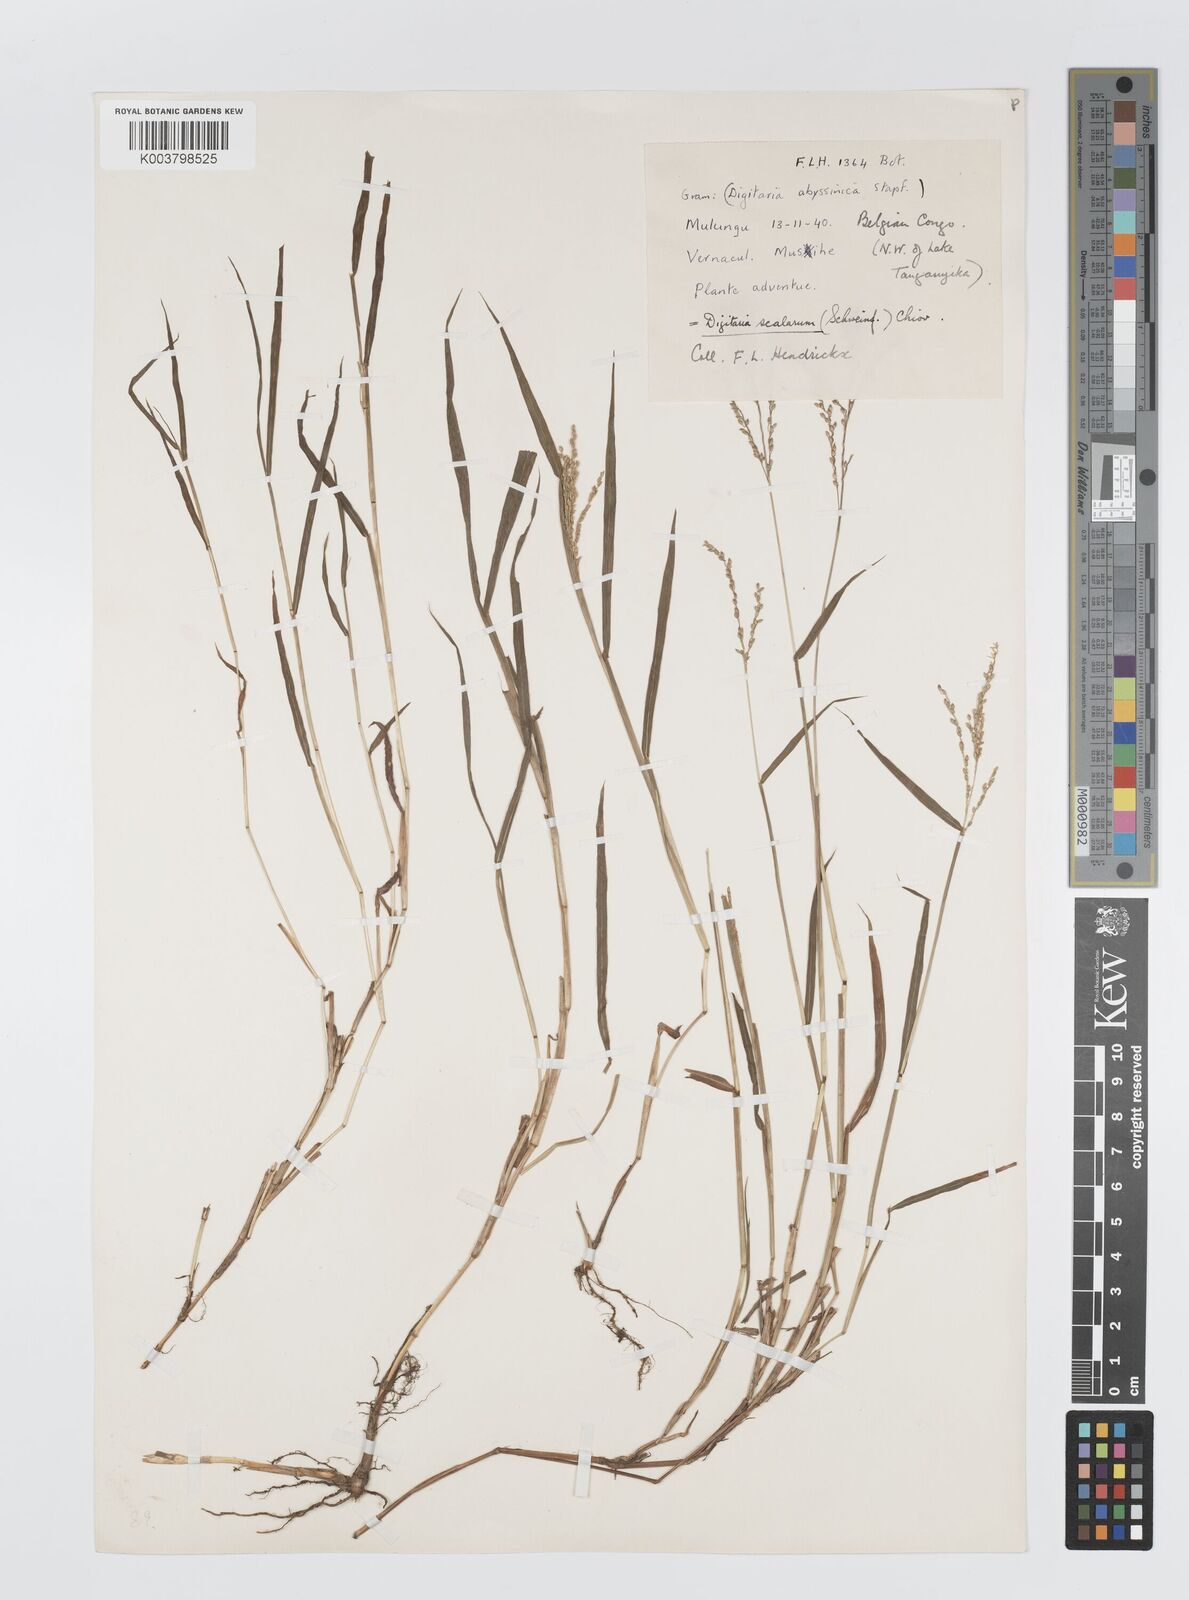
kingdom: Plantae
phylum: Tracheophyta
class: Liliopsida
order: Poales
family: Poaceae
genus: Digitaria
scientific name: Digitaria abyssinica
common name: African couchgrass
